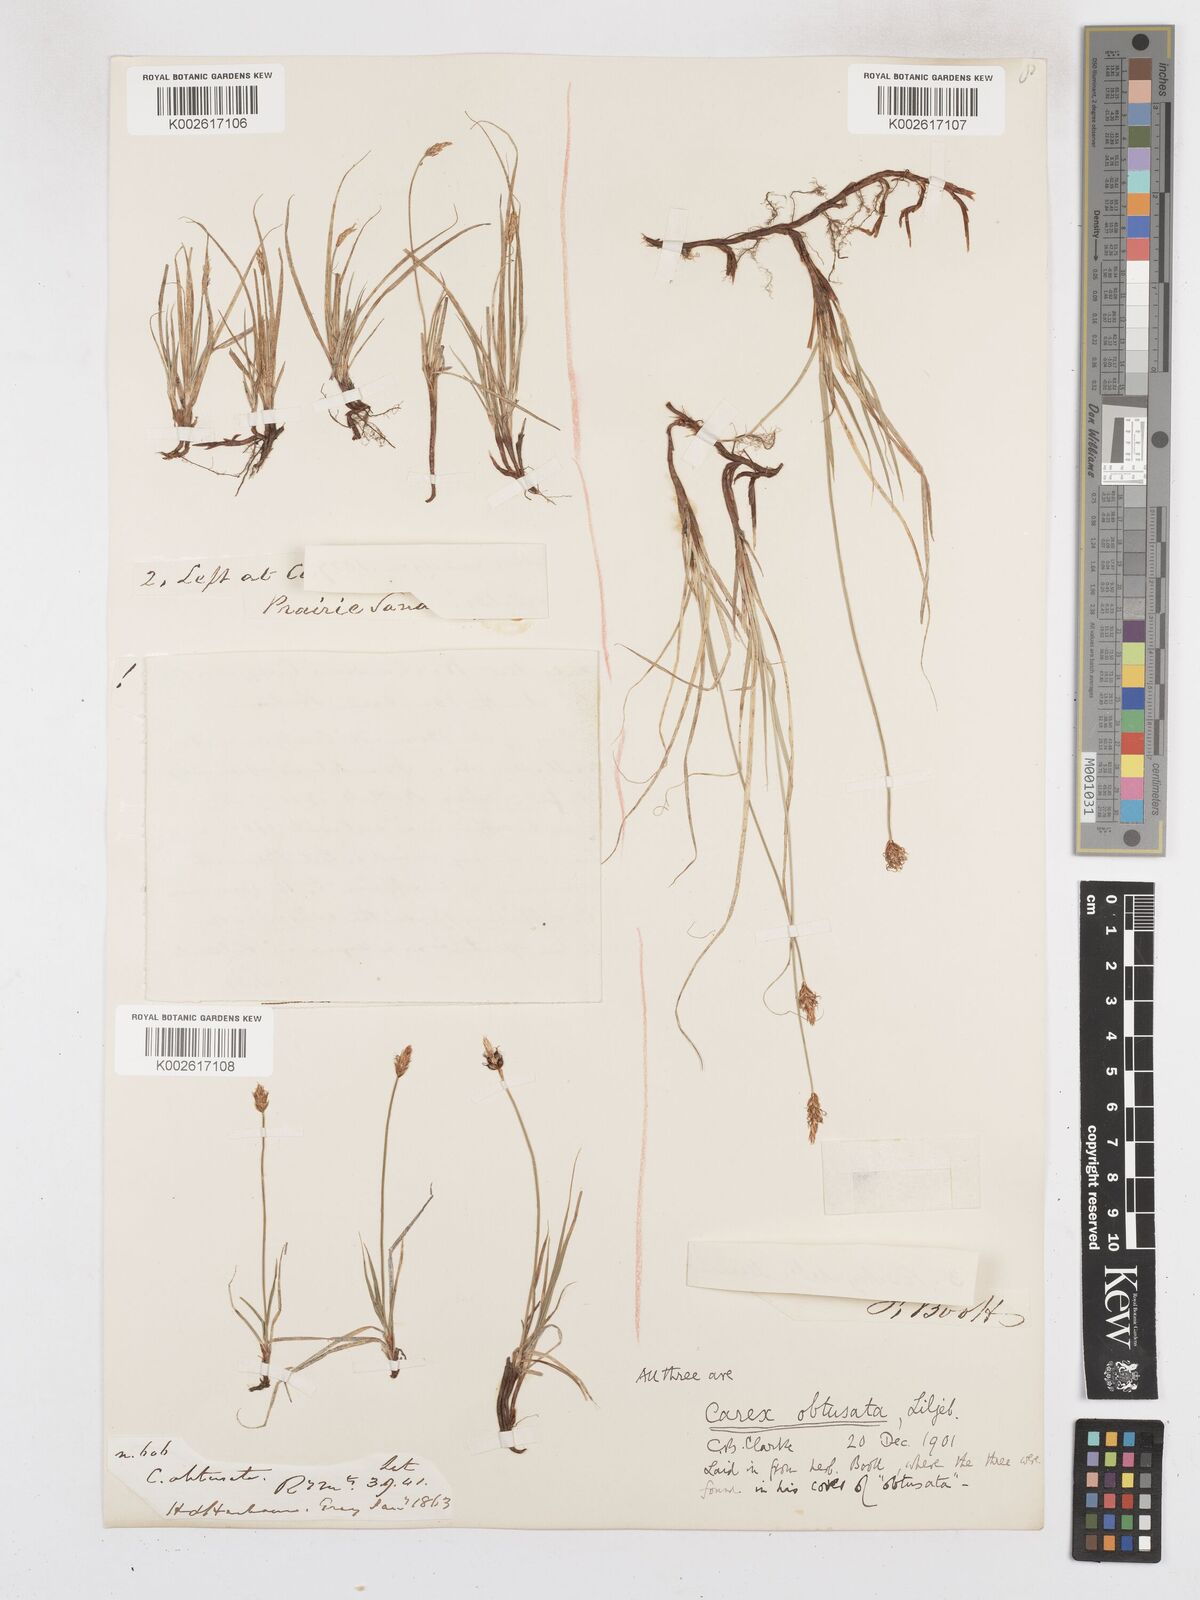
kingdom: Plantae
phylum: Tracheophyta
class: Liliopsida
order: Poales
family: Cyperaceae
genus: Carex
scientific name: Carex obtusata
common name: Blunt sedge
